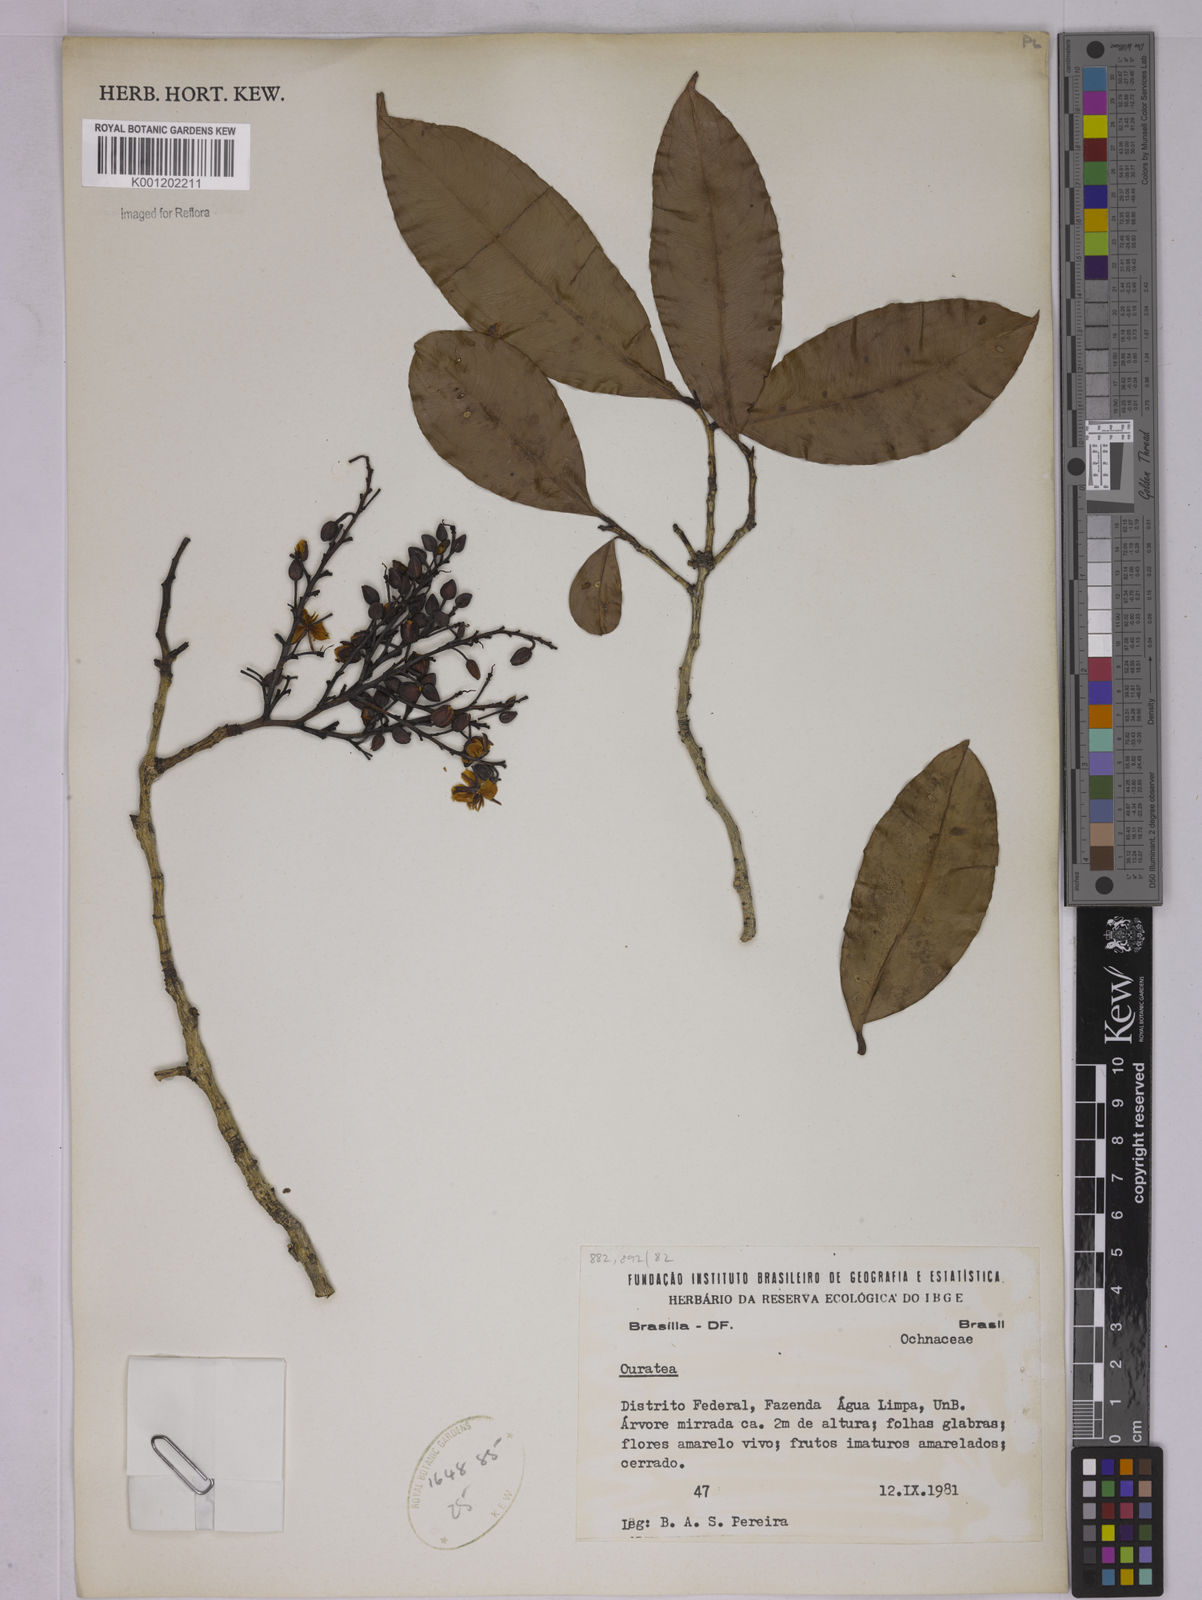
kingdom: Plantae
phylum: Tracheophyta
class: Magnoliopsida
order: Malpighiales
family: Ochnaceae
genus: Ouratea
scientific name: Ouratea
